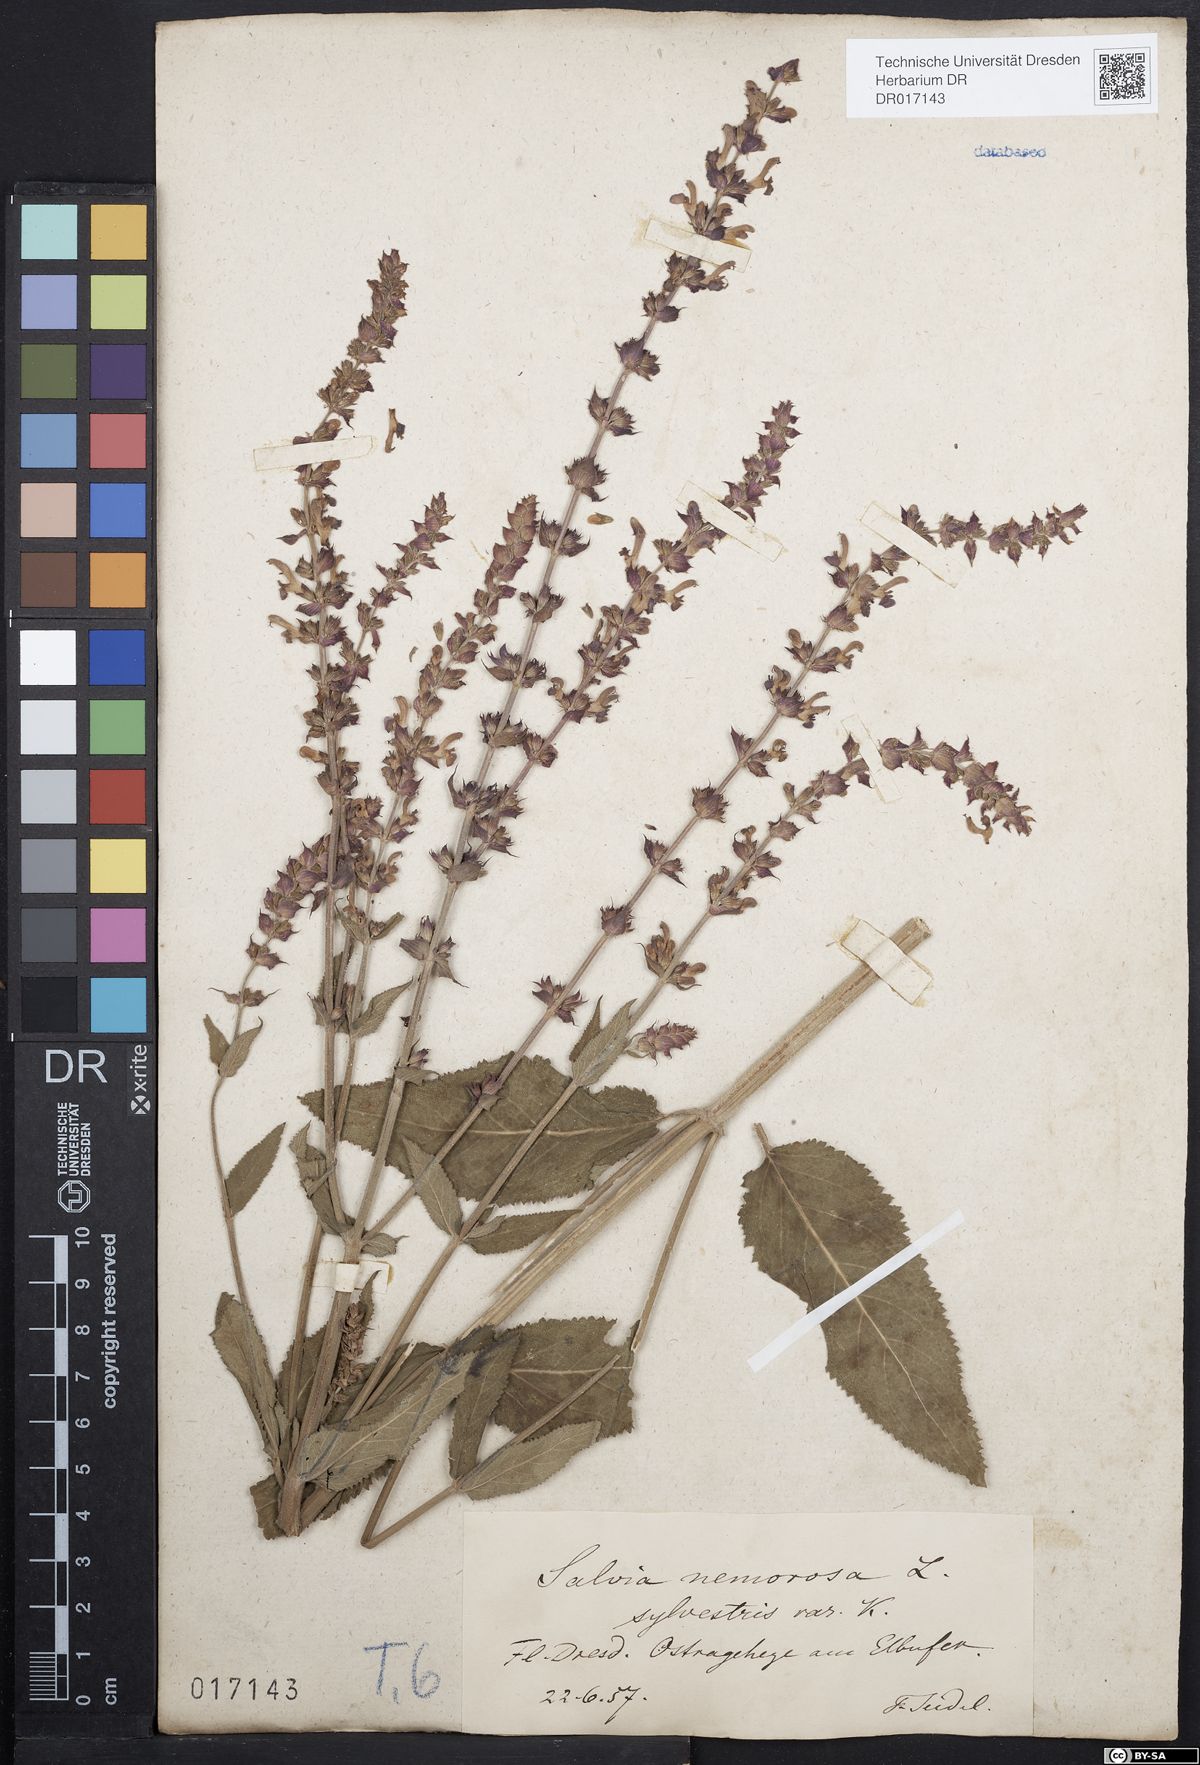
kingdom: Plantae
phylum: Tracheophyta
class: Magnoliopsida
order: Lamiales
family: Lamiaceae
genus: Salvia
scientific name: Salvia nemorosa
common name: Balkan clary
